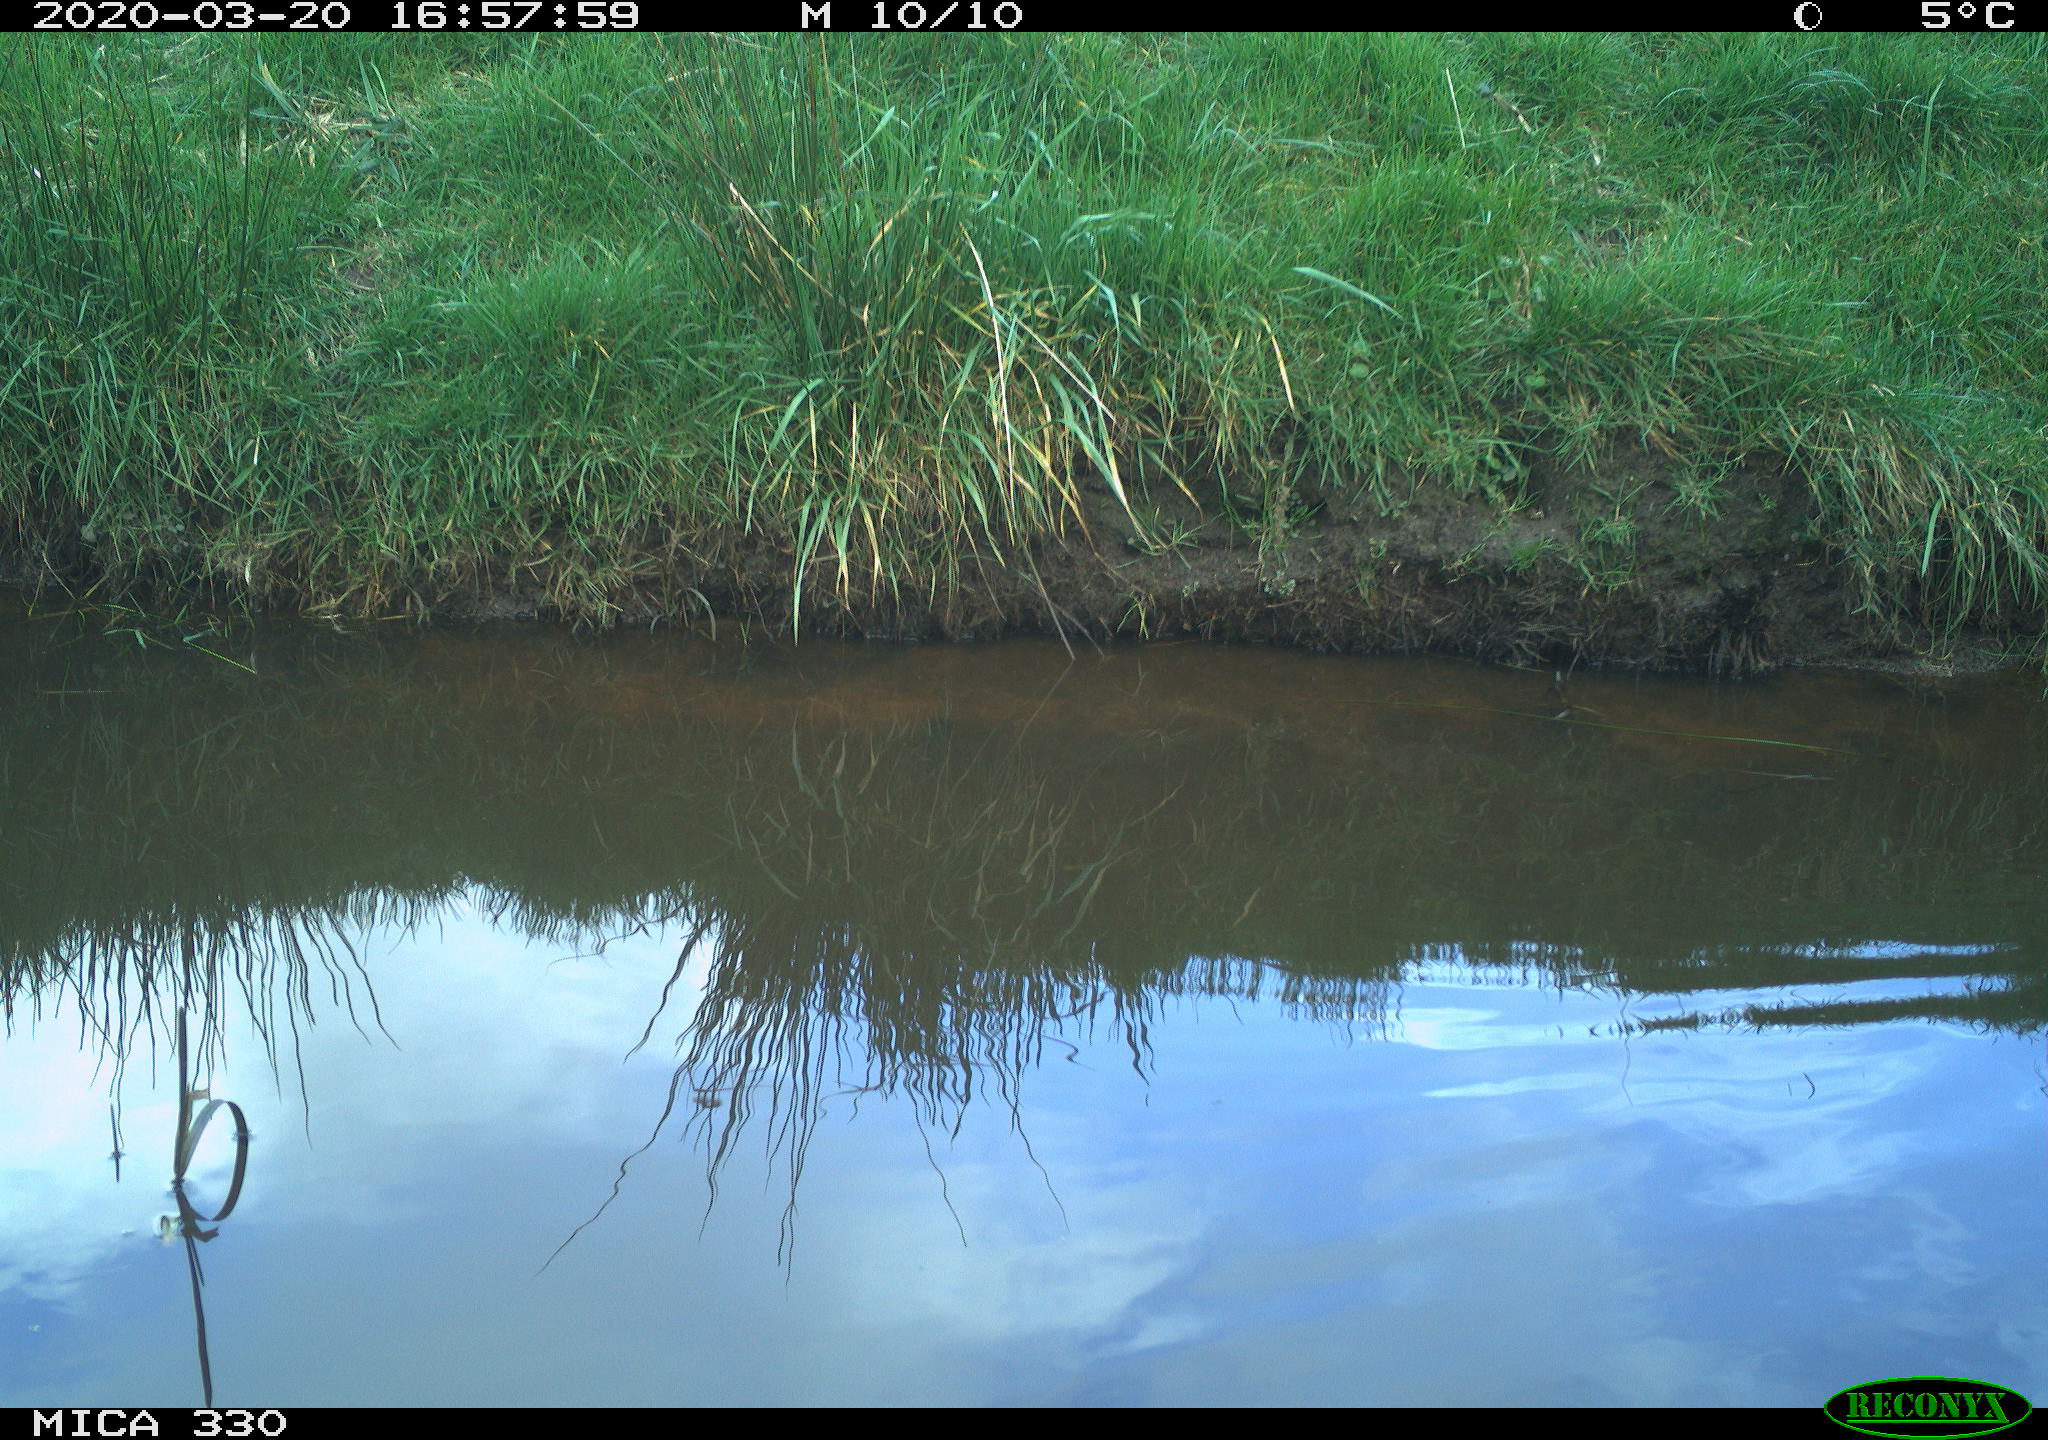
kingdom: Animalia
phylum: Chordata
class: Aves
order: Gruiformes
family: Rallidae
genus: Gallinula
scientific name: Gallinula chloropus
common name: Common moorhen
